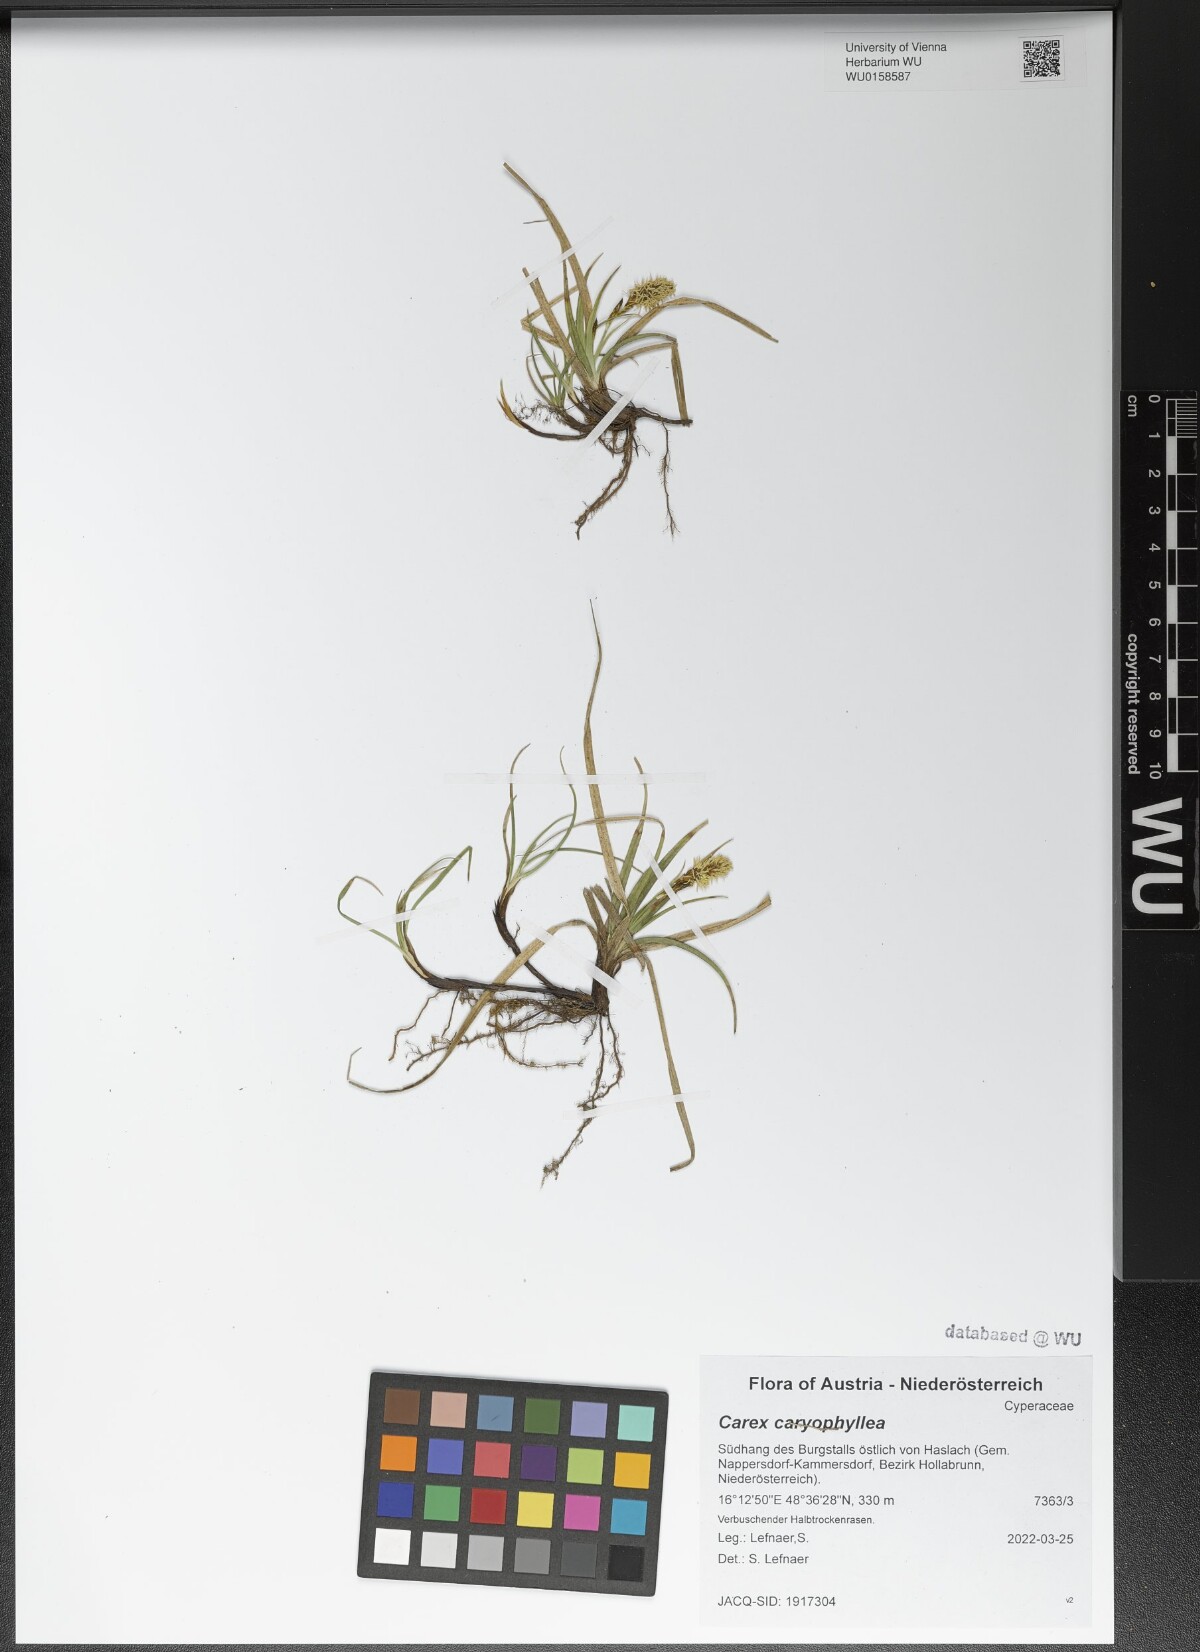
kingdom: Plantae
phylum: Tracheophyta
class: Liliopsida
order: Poales
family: Cyperaceae
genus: Carex
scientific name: Carex caryophyllea
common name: Spring sedge
